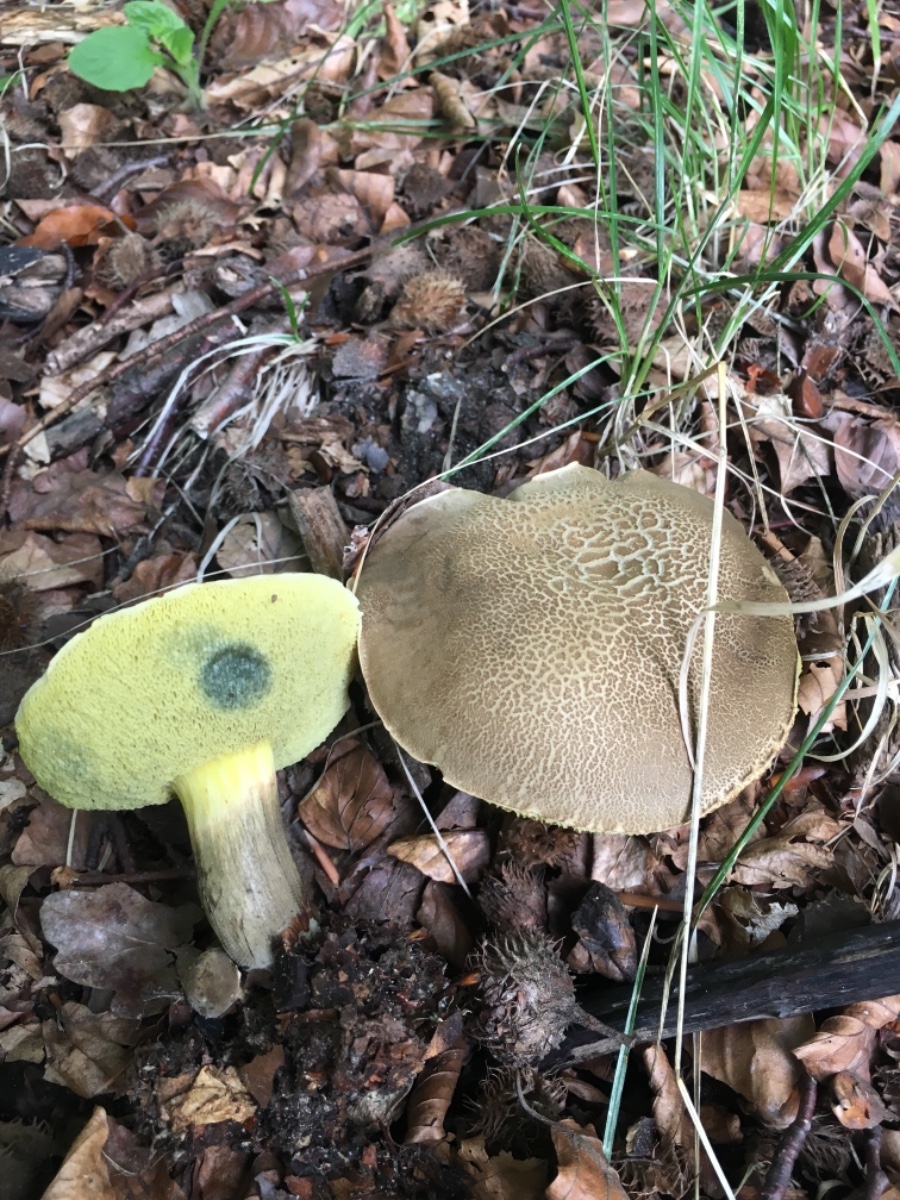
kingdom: Fungi
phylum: Basidiomycota
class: Agaricomycetes
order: Boletales
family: Boletaceae
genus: Xerocomellus
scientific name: Xerocomellus porosporus
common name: hvidsprukken rørhat
